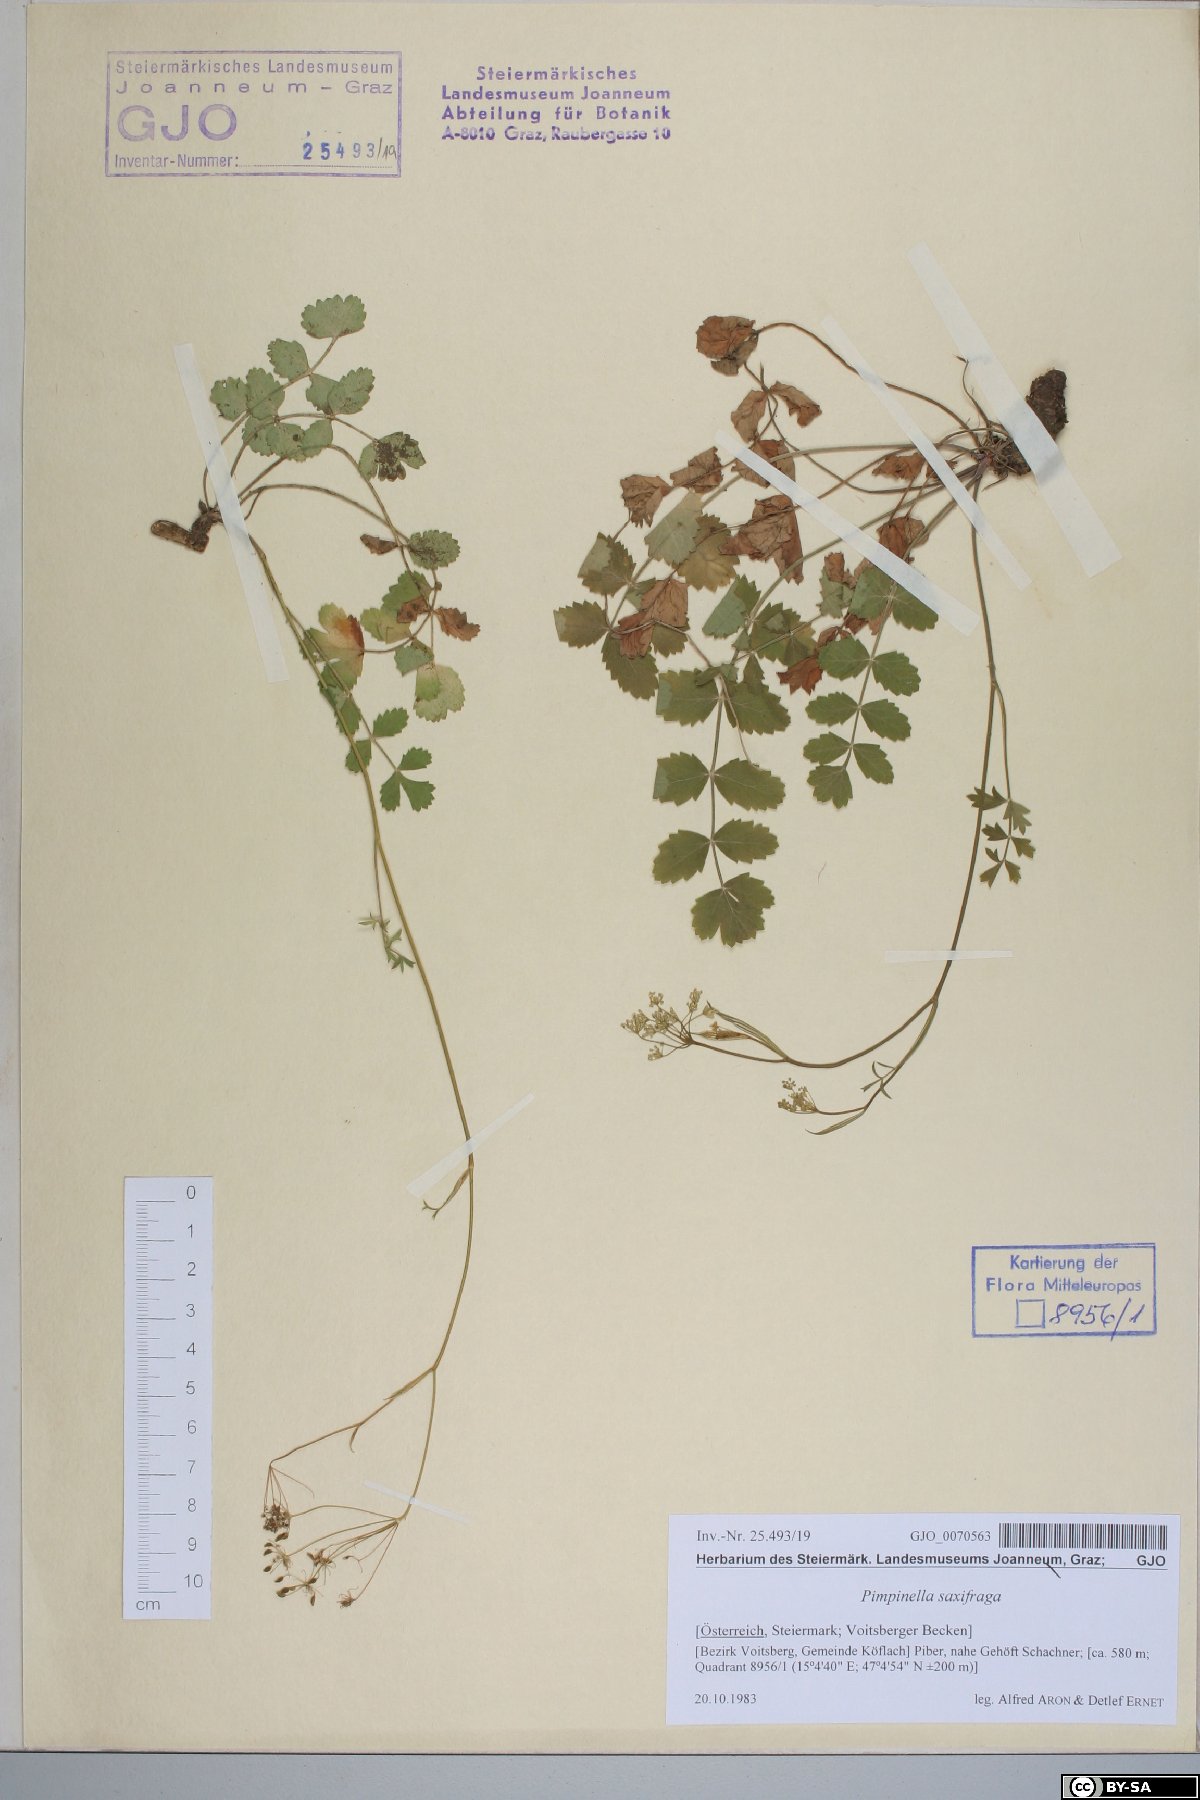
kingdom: Plantae
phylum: Tracheophyta
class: Magnoliopsida
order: Apiales
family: Apiaceae
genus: Pimpinella
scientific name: Pimpinella saxifraga
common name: Burnet-saxifrage
